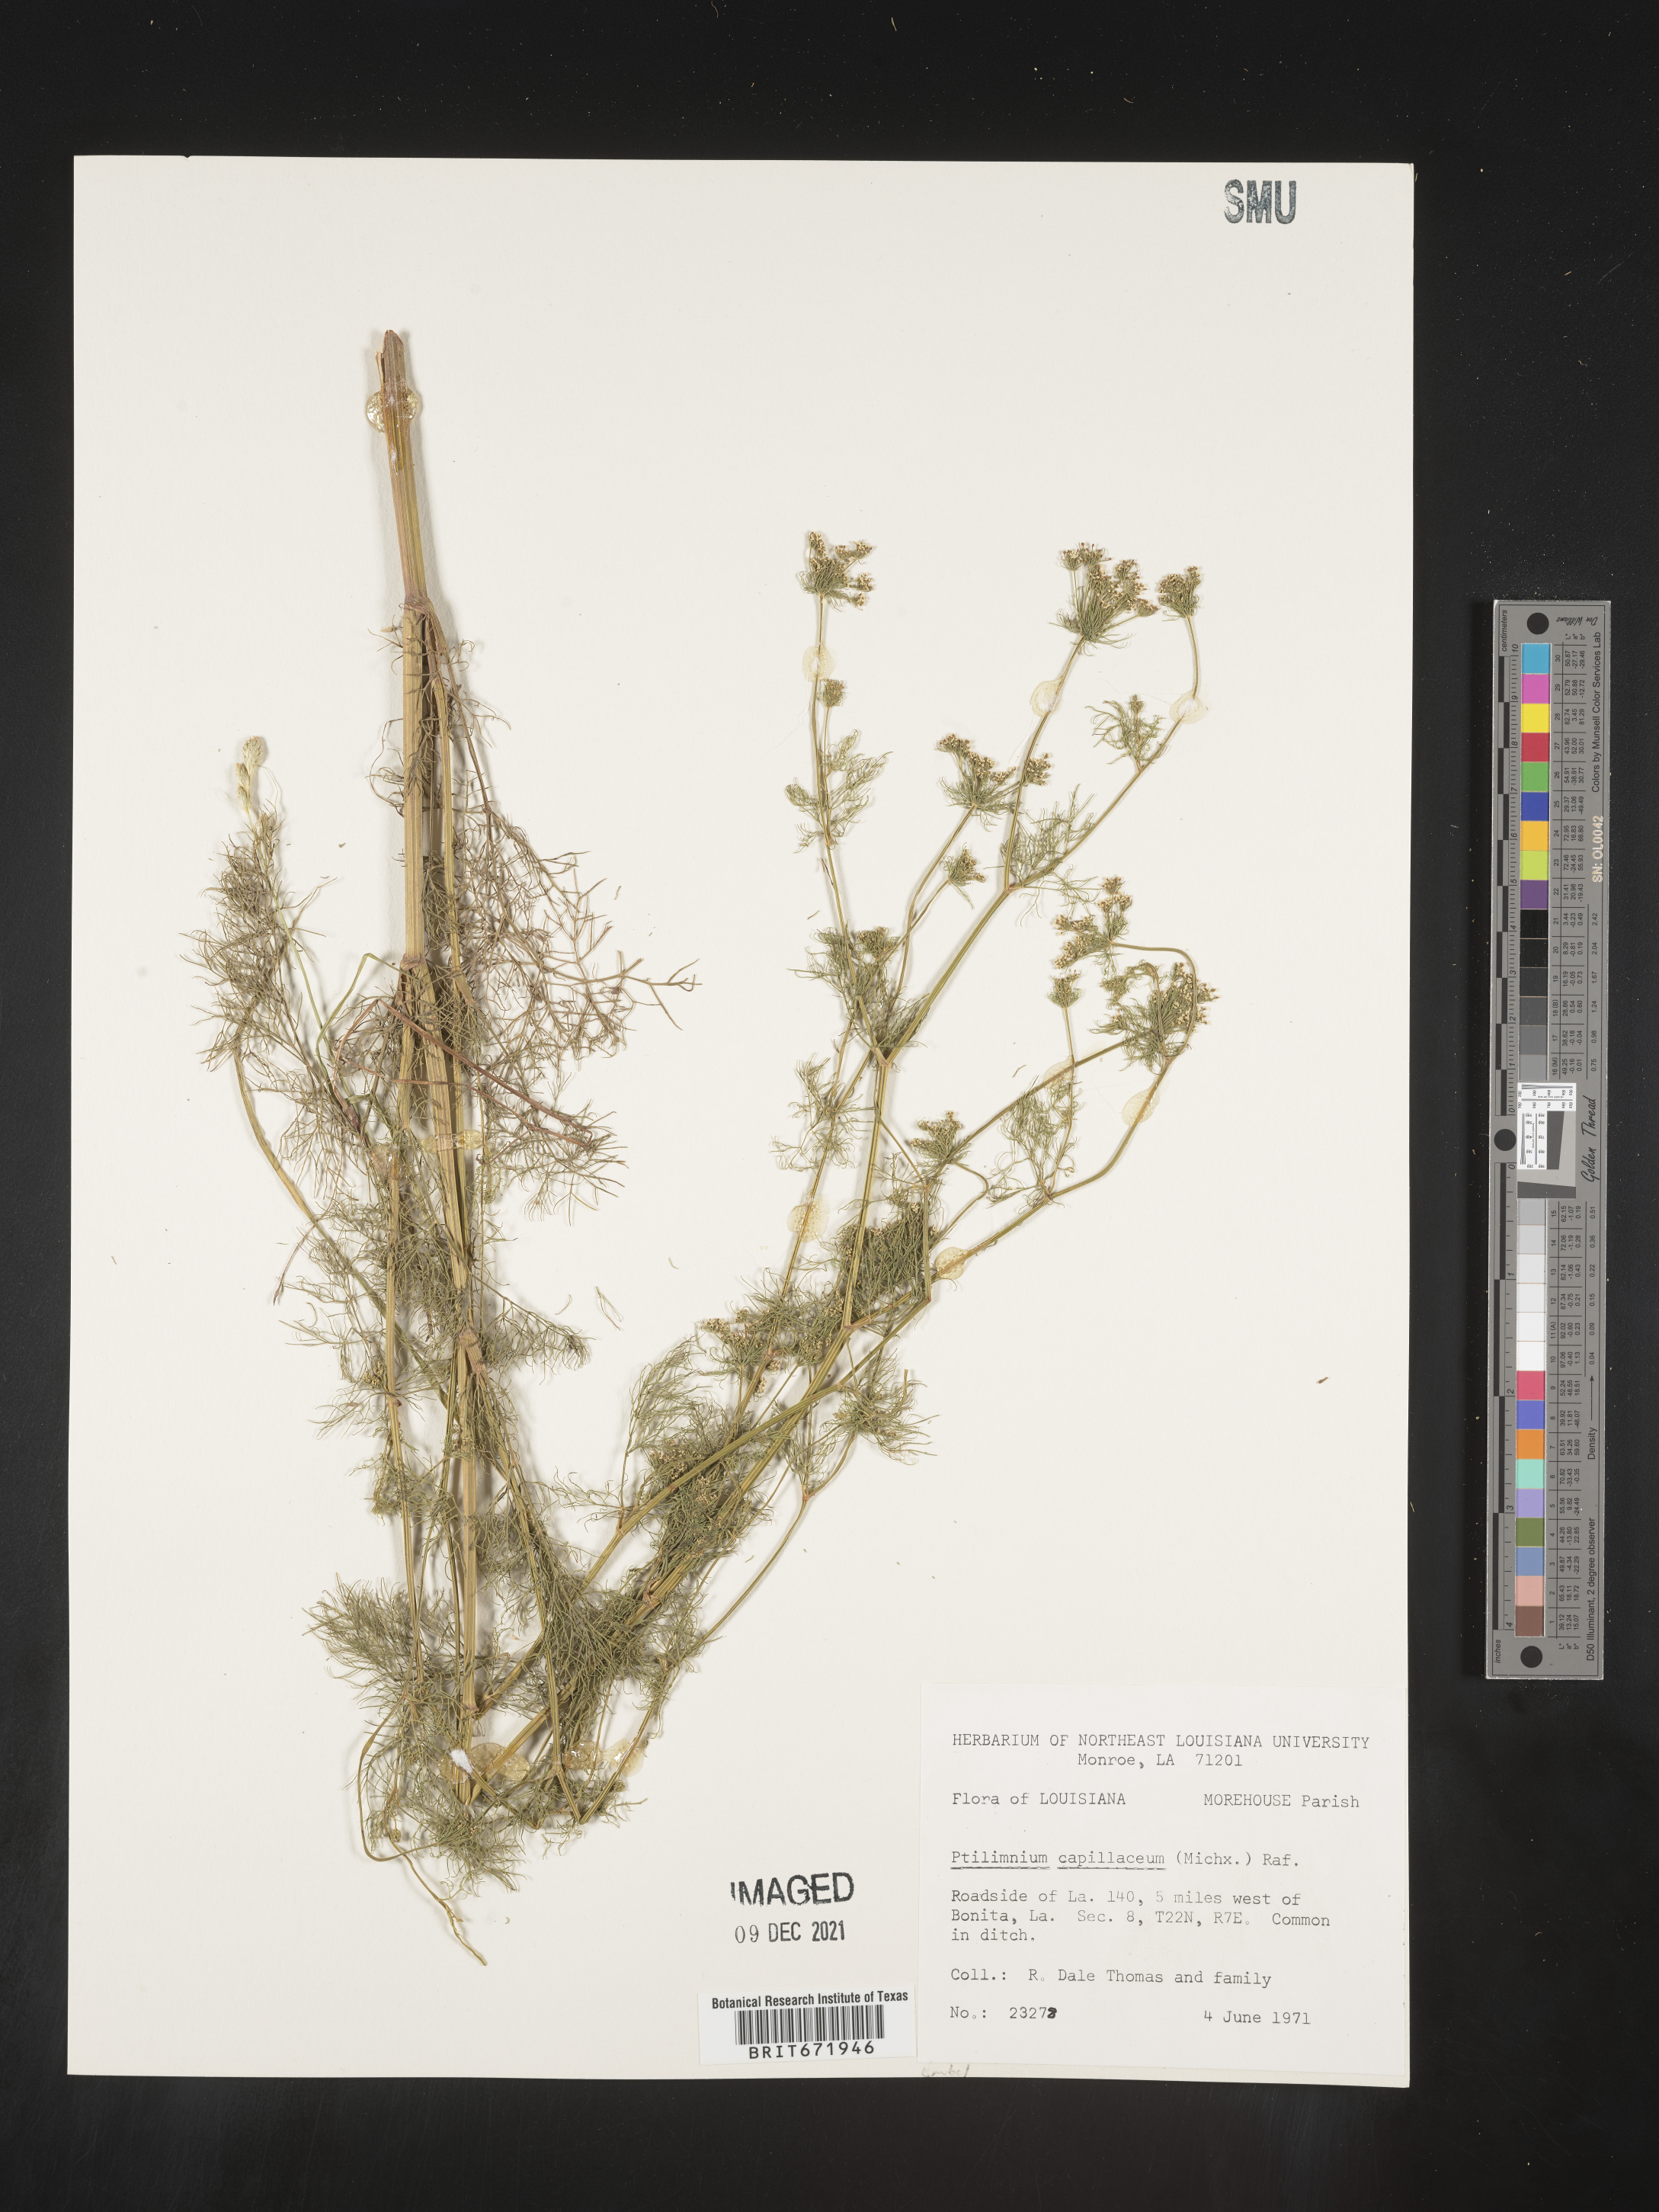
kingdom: Plantae
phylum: Tracheophyta
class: Magnoliopsida
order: Apiales
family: Apiaceae
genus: Ptilimnium
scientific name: Ptilimnium capillaceum
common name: Herbwilliam
